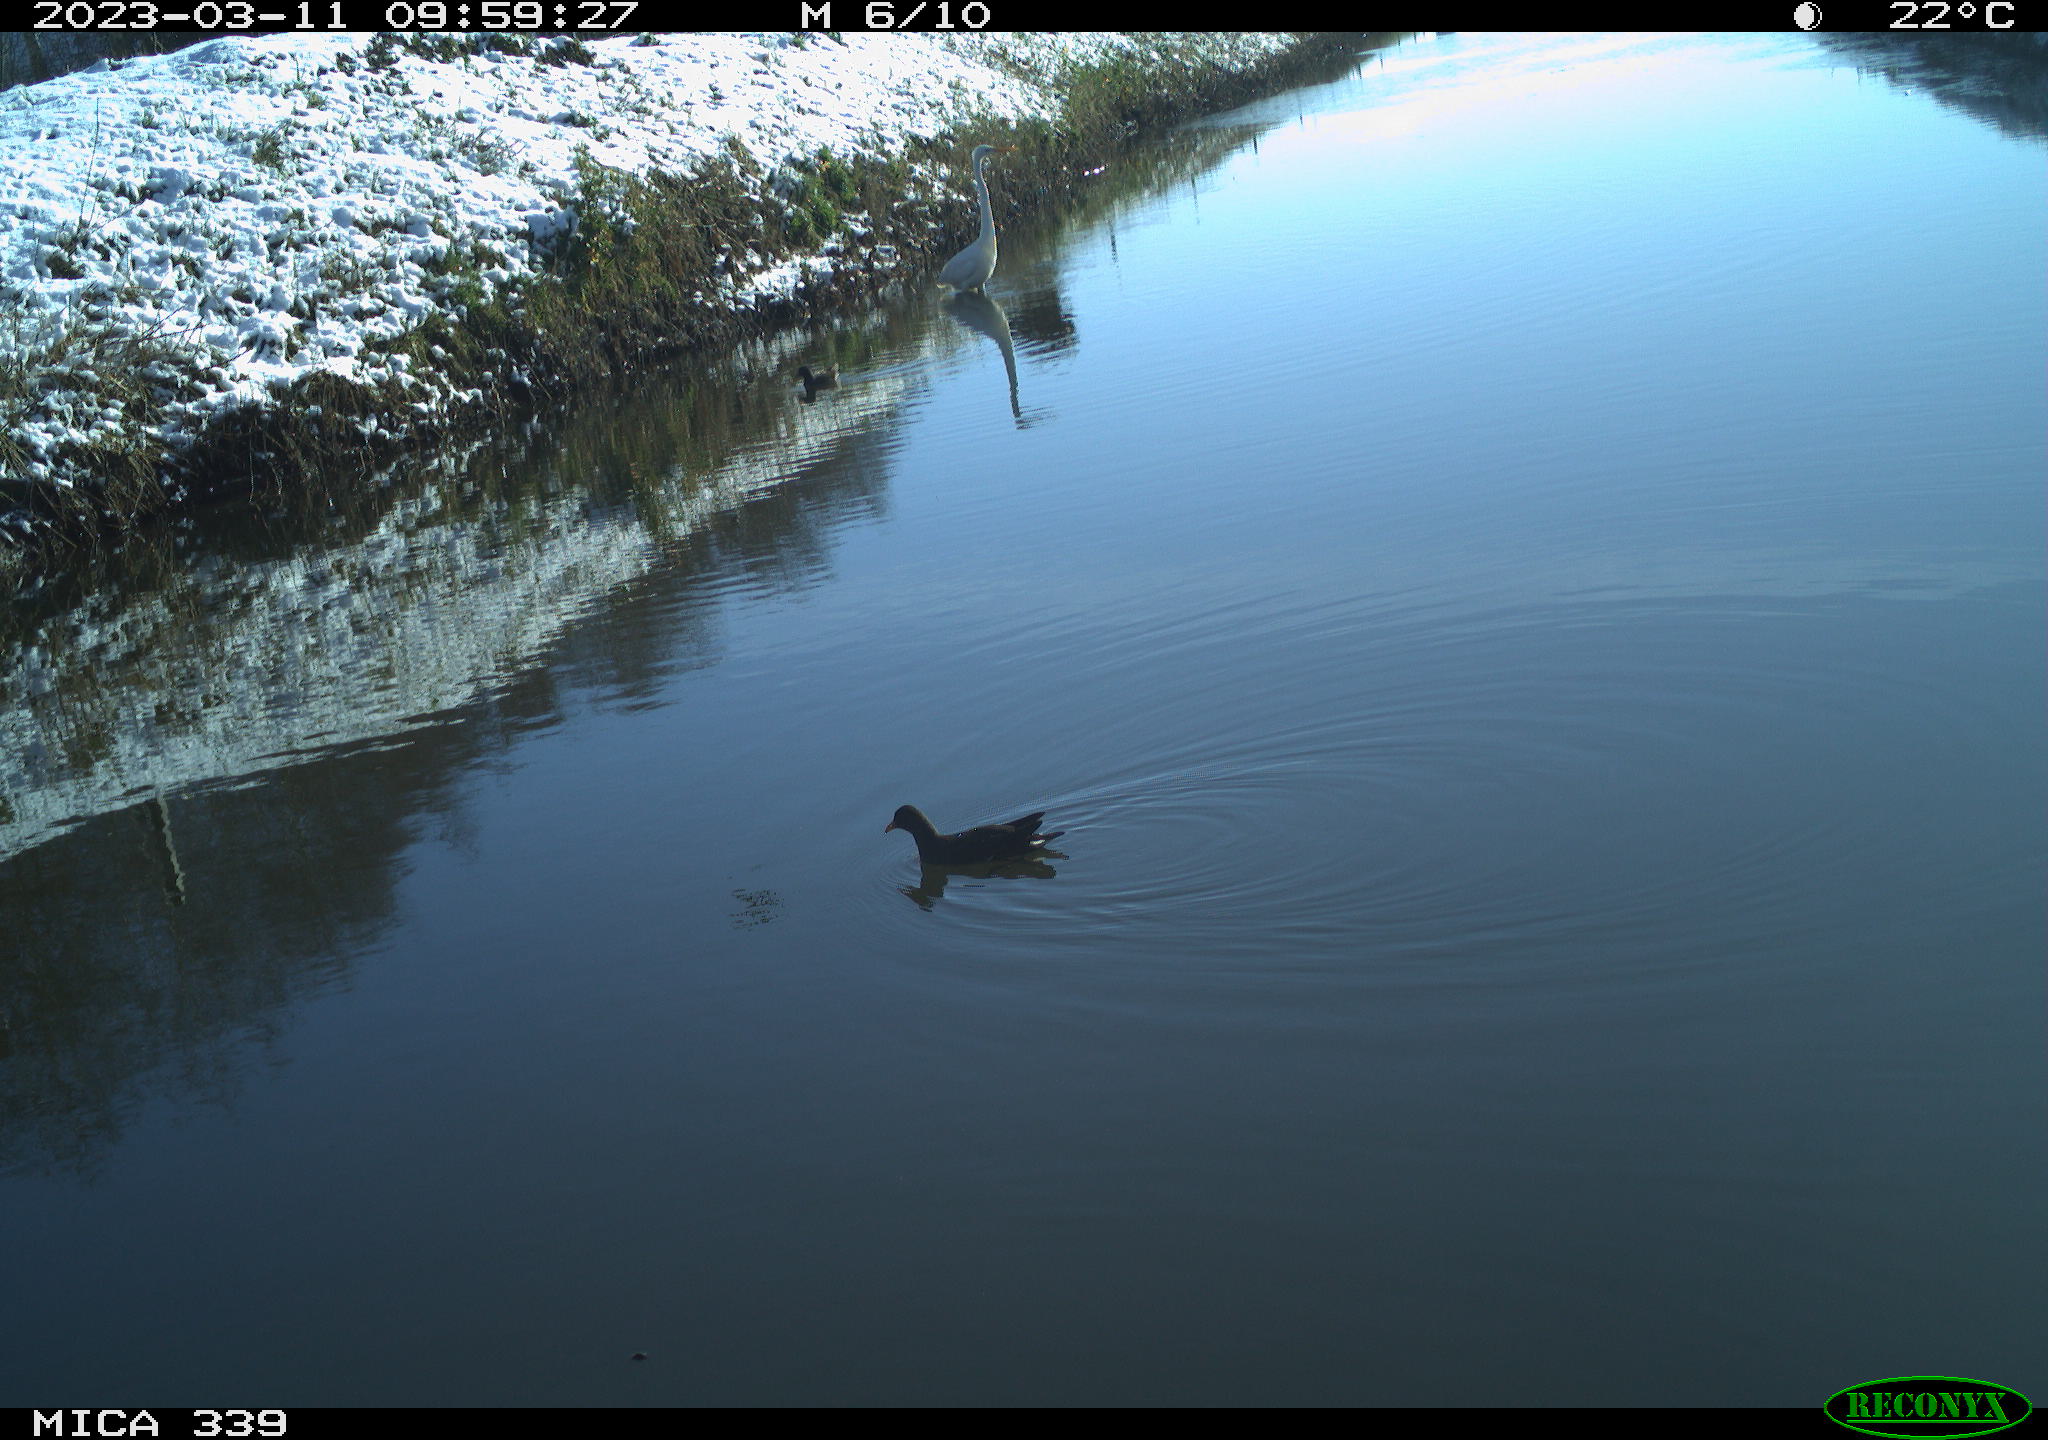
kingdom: Animalia
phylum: Chordata
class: Aves
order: Gruiformes
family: Rallidae
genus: Gallinula
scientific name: Gallinula chloropus
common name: Common moorhen
